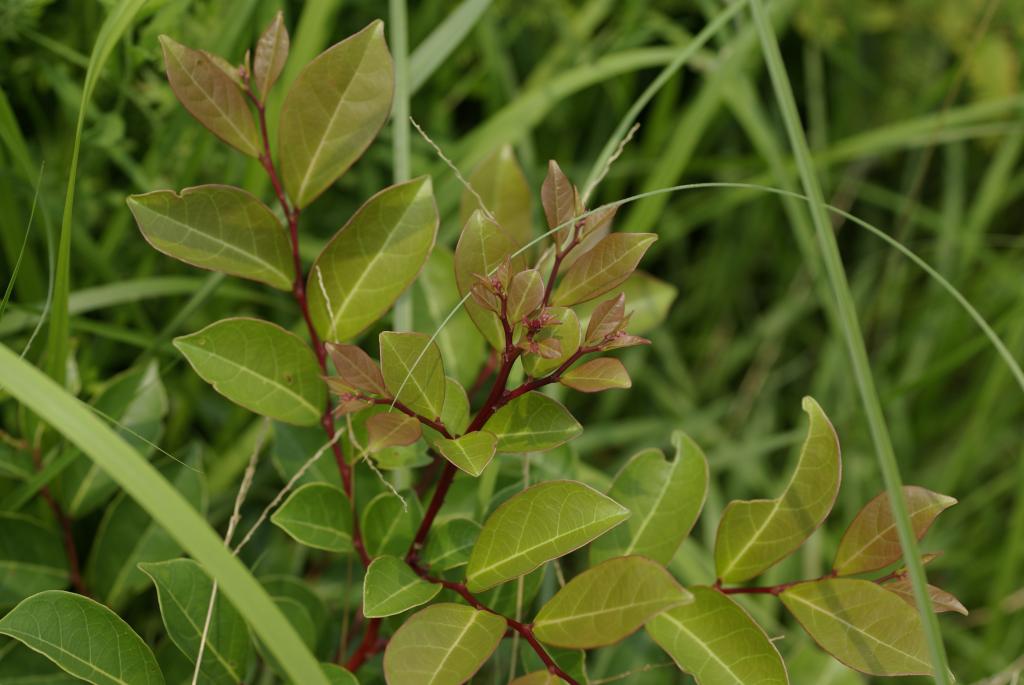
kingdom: Plantae
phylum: Tracheophyta
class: Magnoliopsida
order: Malpighiales
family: Phyllanthaceae
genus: Glochidion
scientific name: Glochidion rubrum
